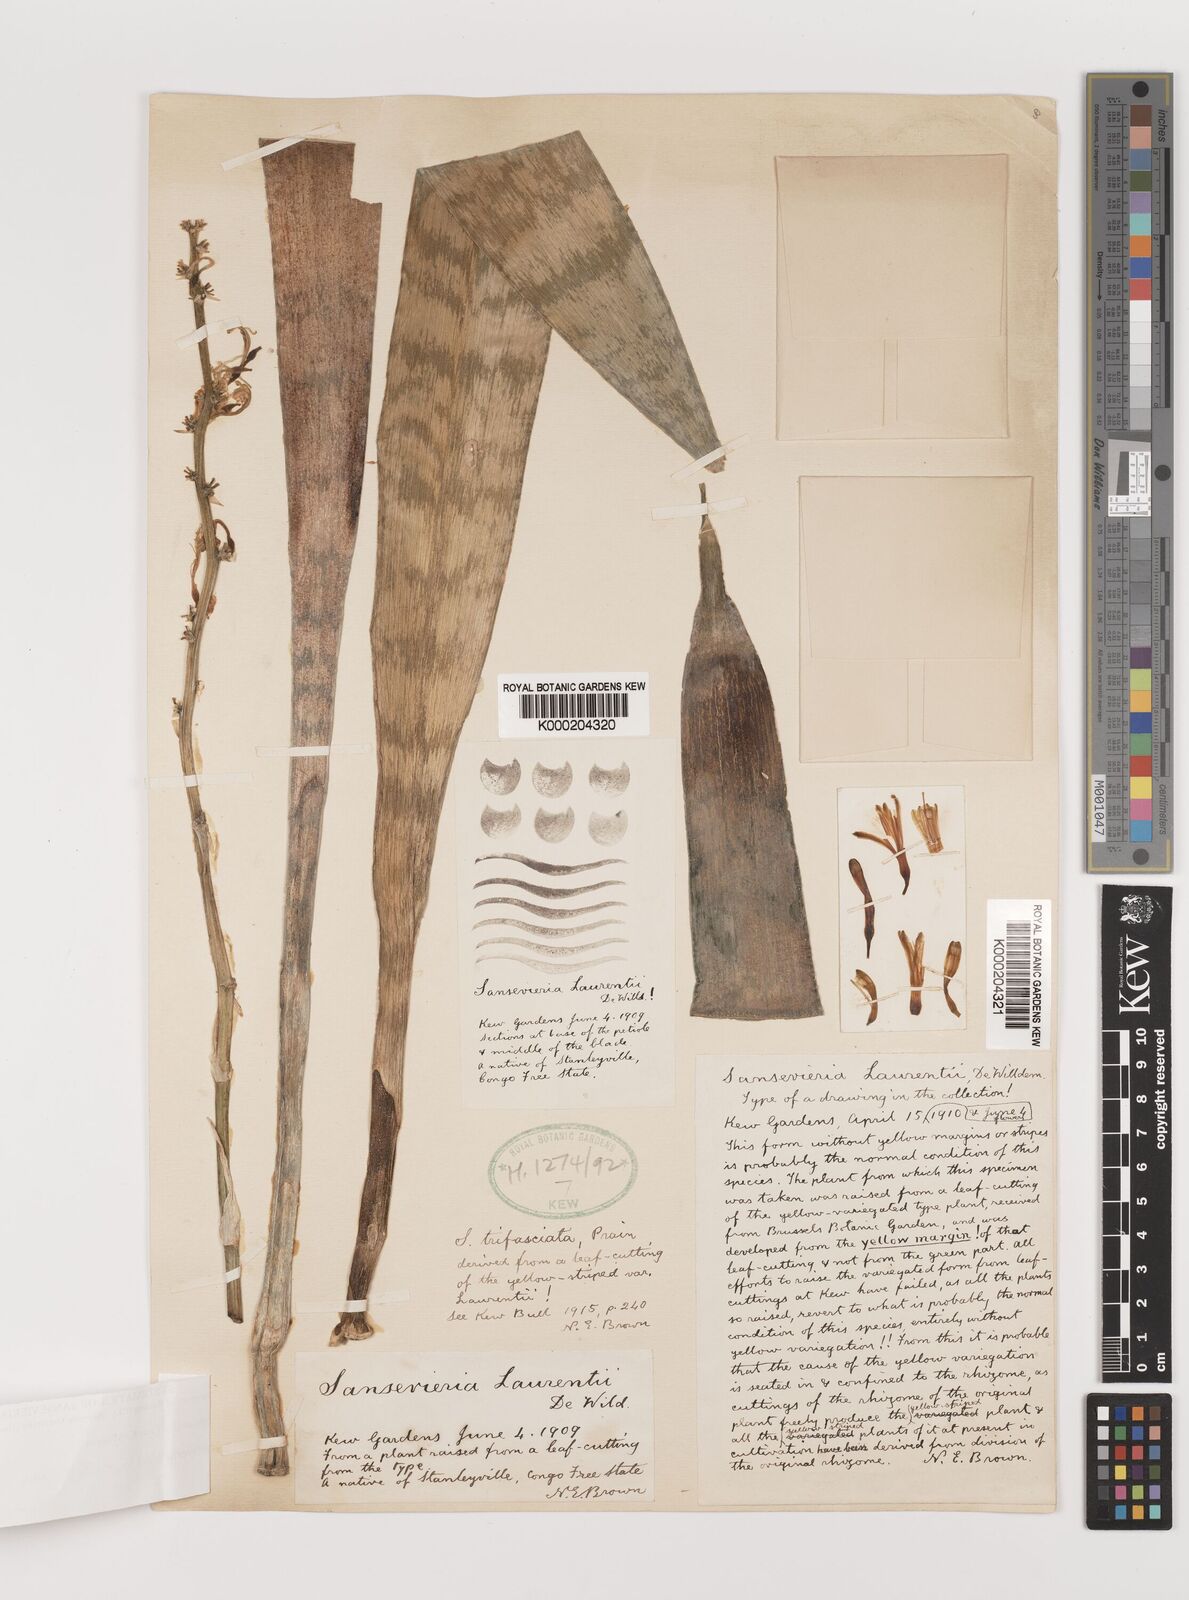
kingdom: Plantae
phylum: Tracheophyta
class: Liliopsida
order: Asparagales
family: Asparagaceae
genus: Dracaena
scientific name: Dracaena trifasciata
